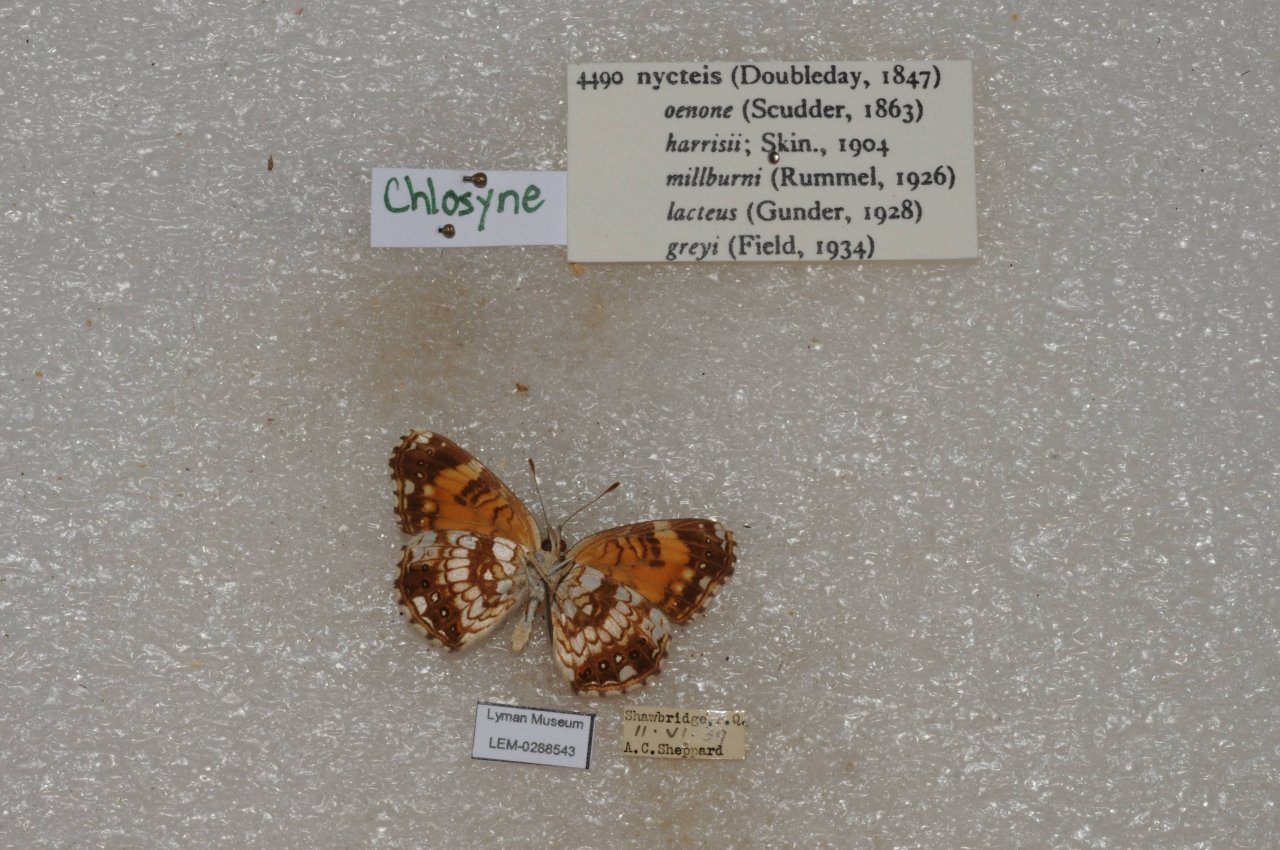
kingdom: Animalia
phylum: Arthropoda
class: Insecta
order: Lepidoptera
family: Nymphalidae
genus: Chlosyne
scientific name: Chlosyne nycteis
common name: Silvery Checkerspot
